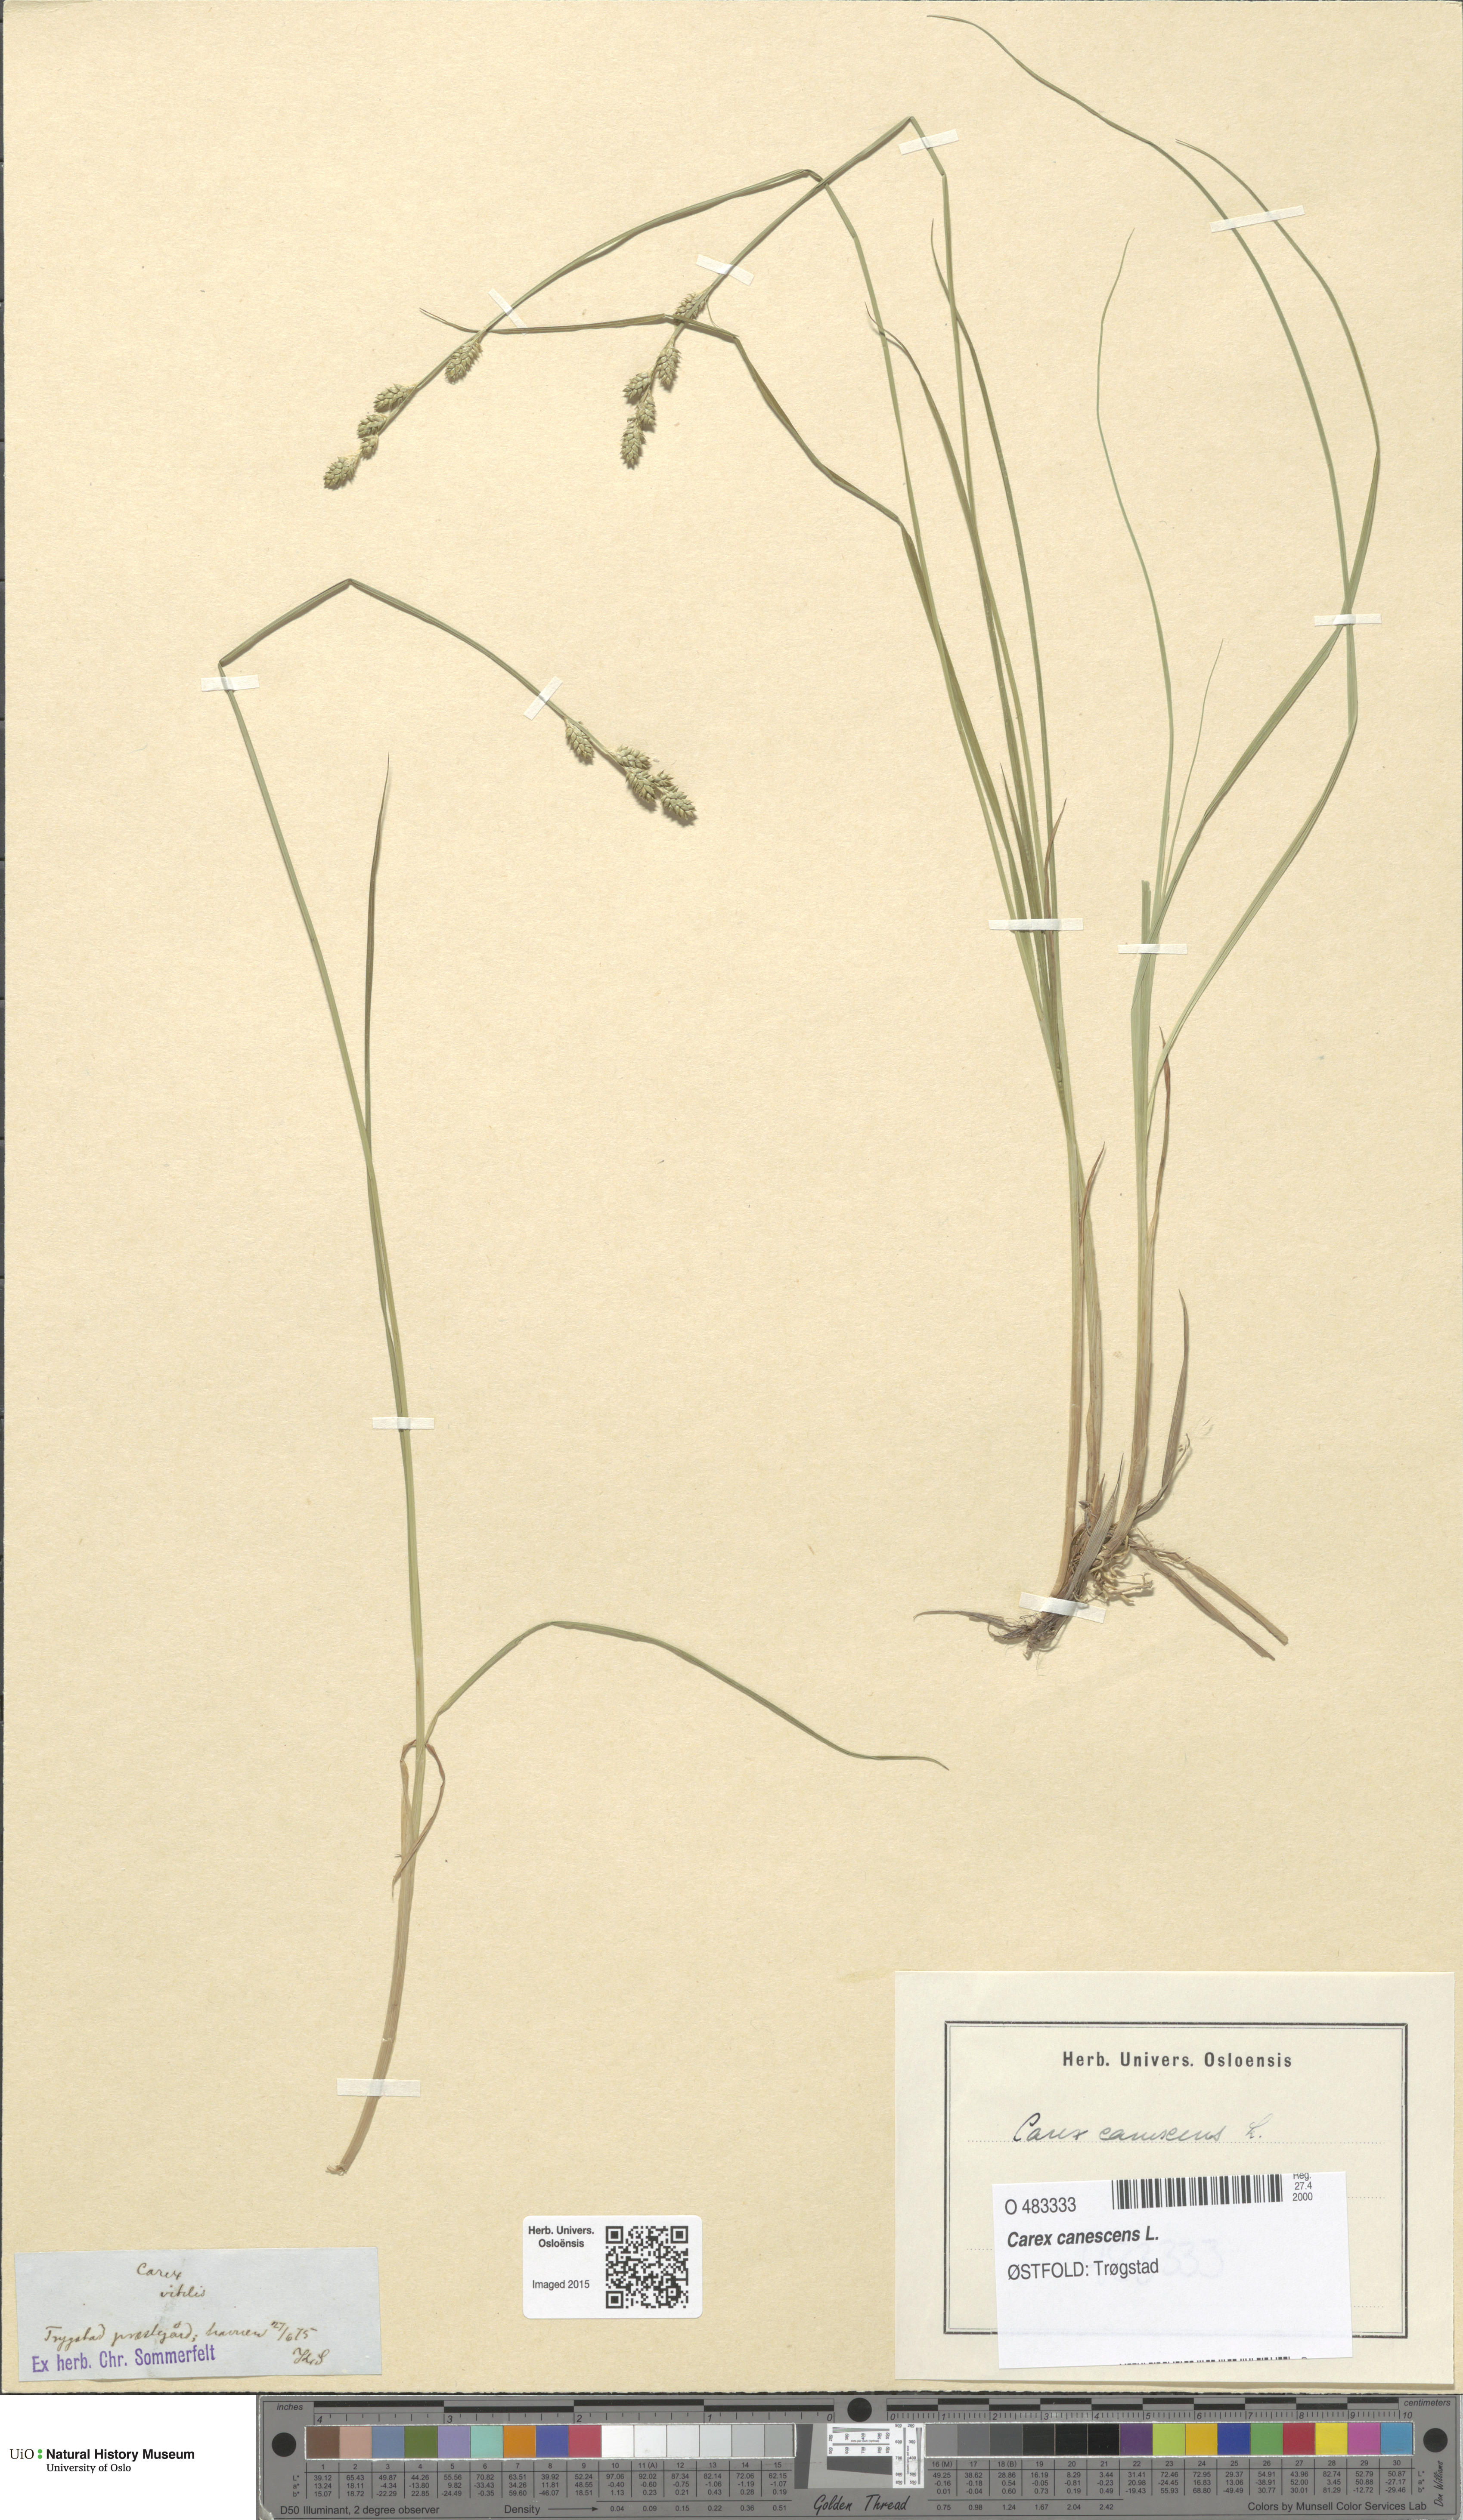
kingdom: Plantae
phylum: Tracheophyta
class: Liliopsida
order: Poales
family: Cyperaceae
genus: Carex
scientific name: Carex canescens
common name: White sedge
